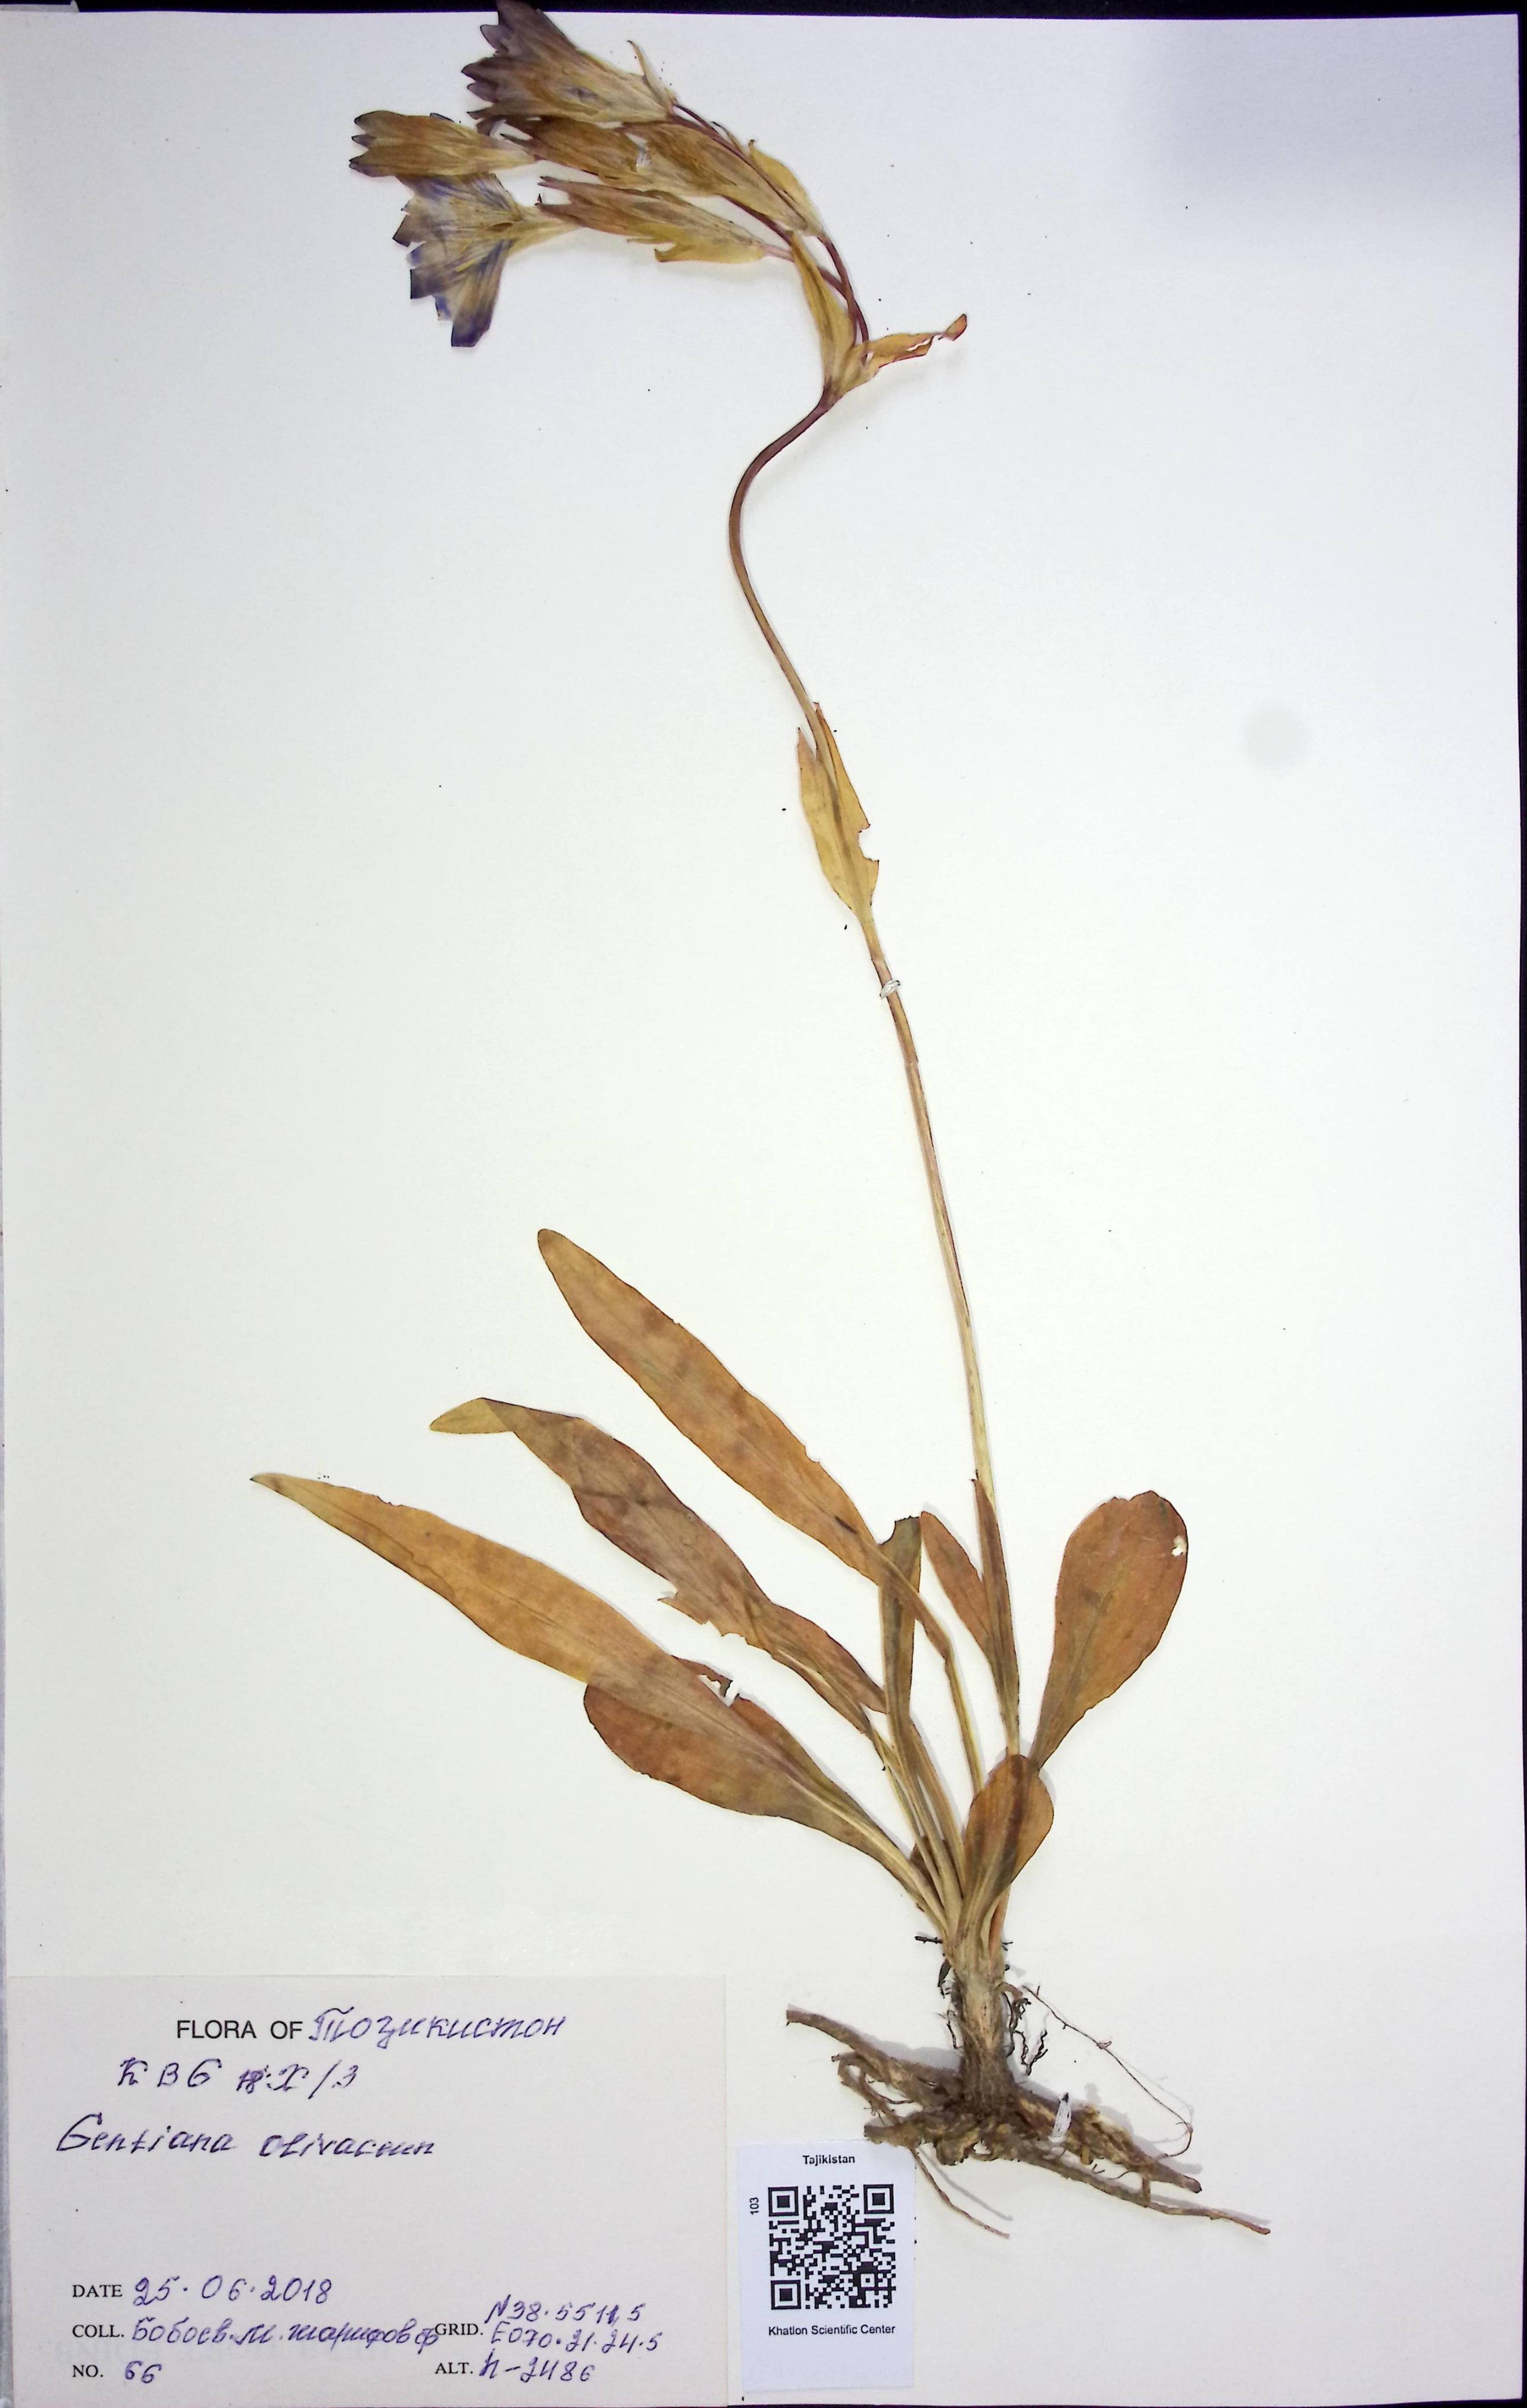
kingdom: Plantae
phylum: Tracheophyta
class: Magnoliopsida
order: Gentianales
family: Gentianaceae
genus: Gentiana
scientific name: Gentiana
